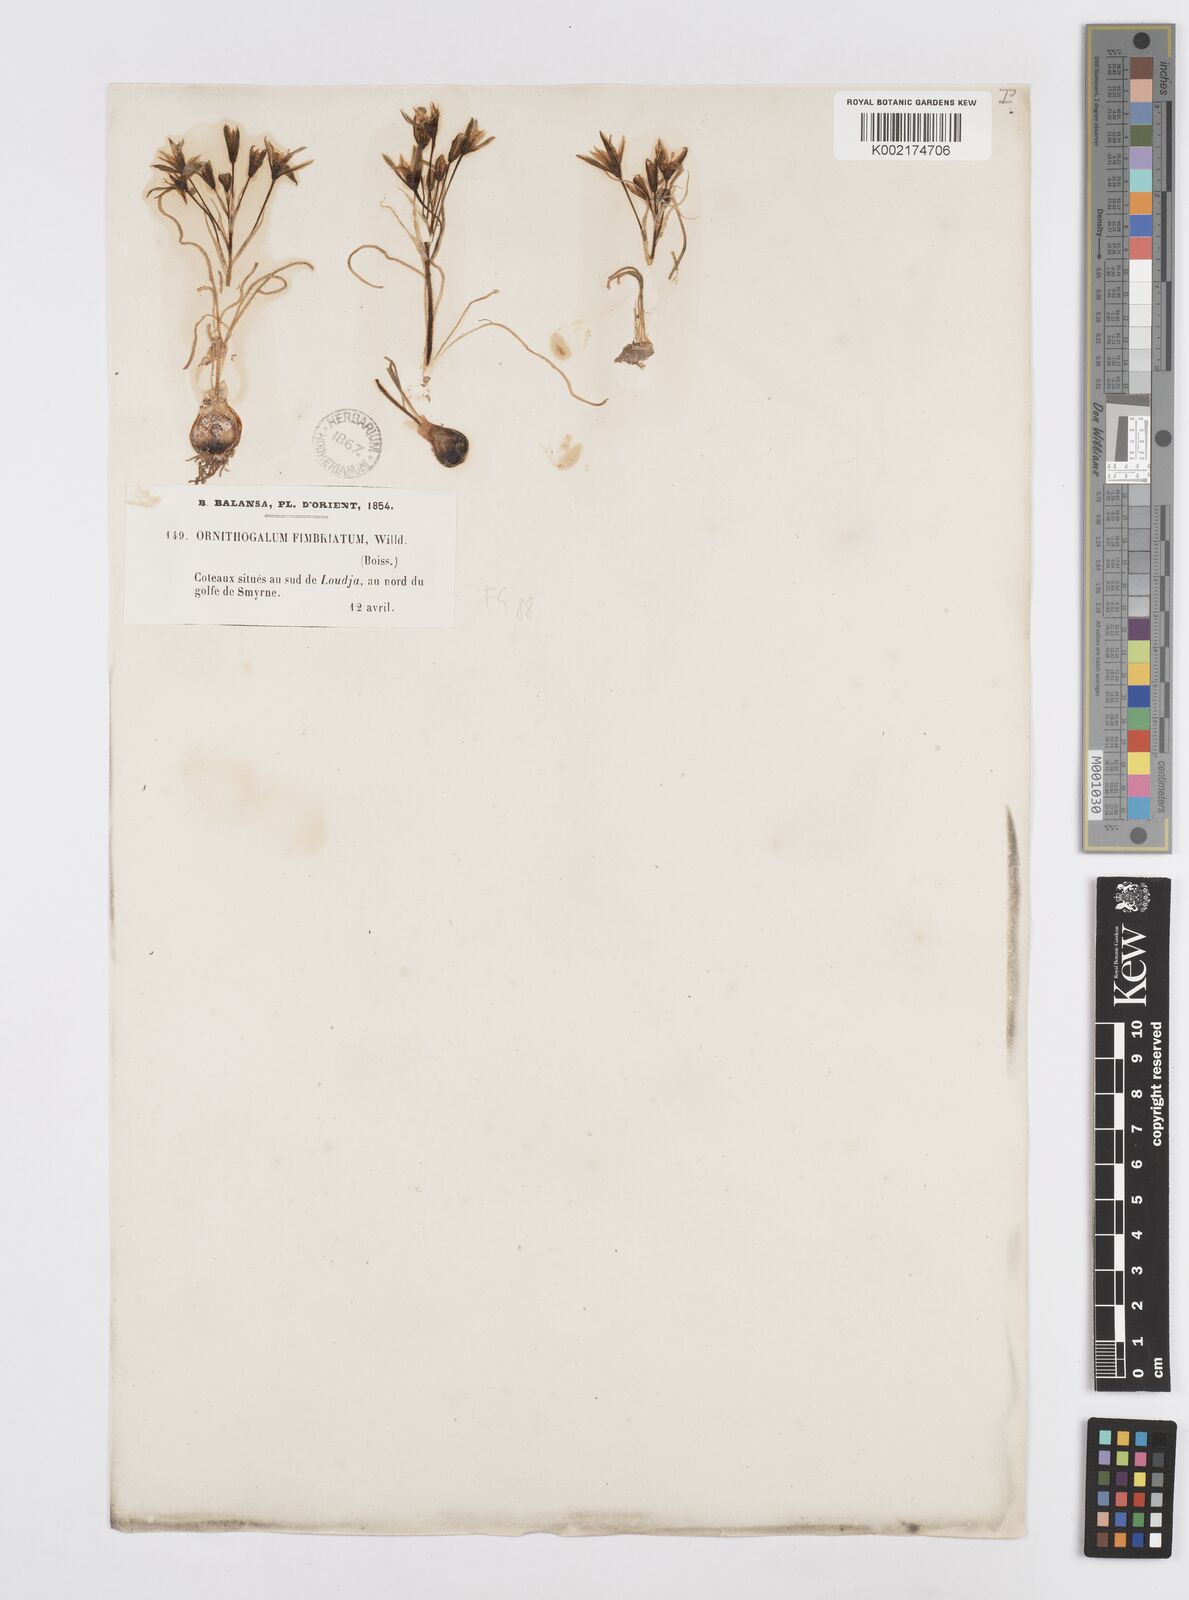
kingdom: Plantae
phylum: Tracheophyta
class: Liliopsida
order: Asparagales
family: Asparagaceae
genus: Ornithogalum
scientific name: Ornithogalum fimbriatum
